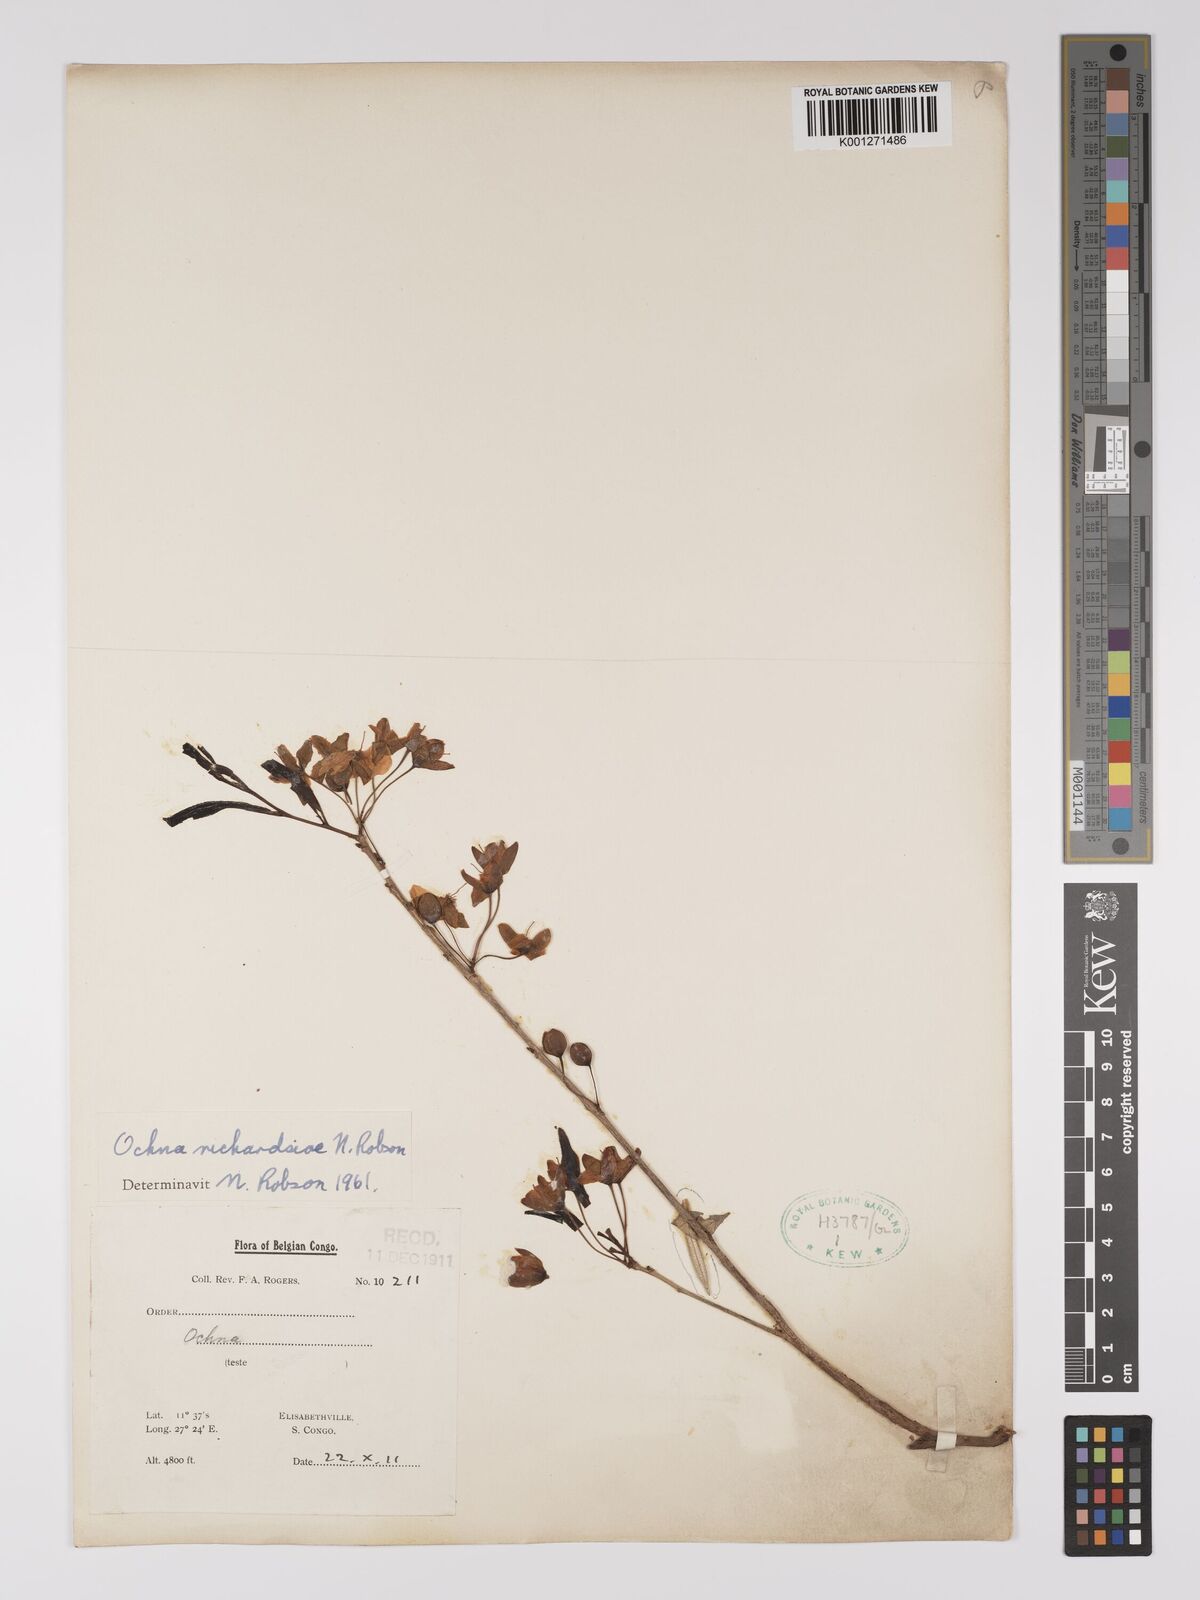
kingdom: Plantae
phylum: Tracheophyta
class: Magnoliopsida
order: Malpighiales
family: Ochnaceae
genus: Ochna
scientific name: Ochna richardsiae
